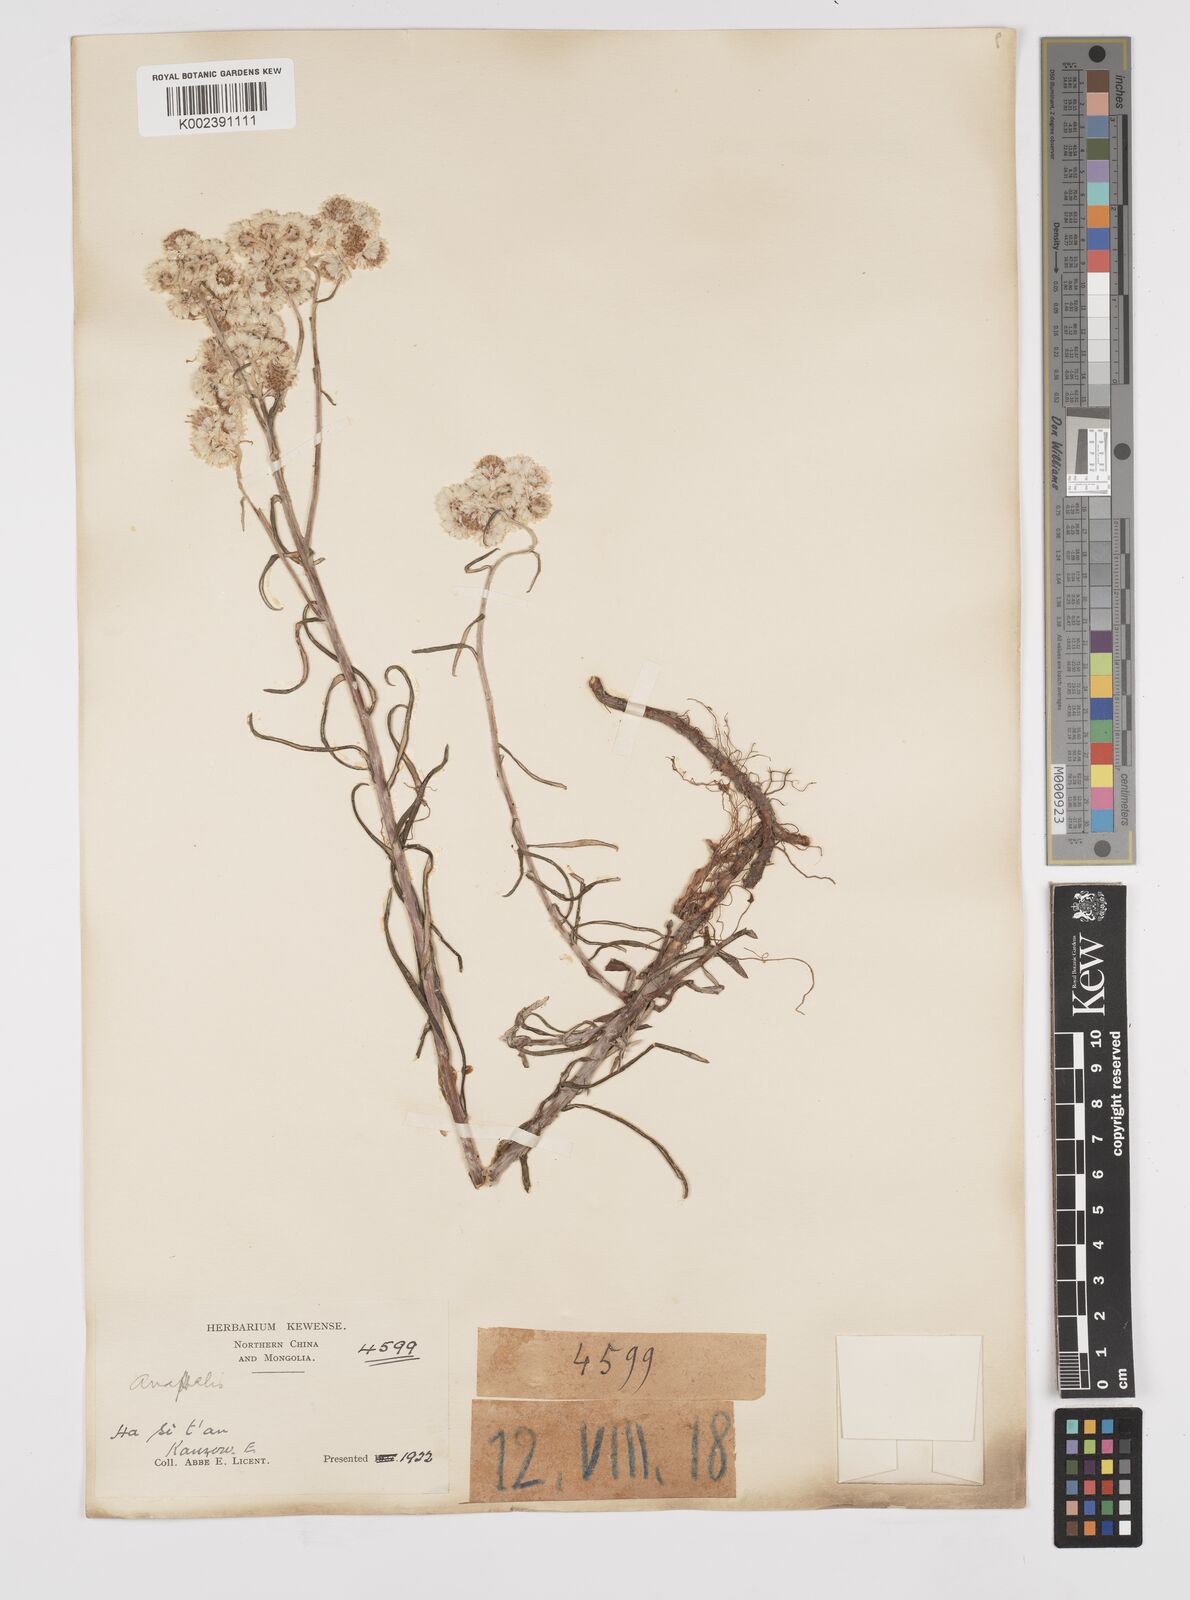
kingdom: Plantae
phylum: Tracheophyta
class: Magnoliopsida
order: Asterales
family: Asteraceae
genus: Anaphalis
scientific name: Anaphalis margaritacea
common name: Pearly everlasting
